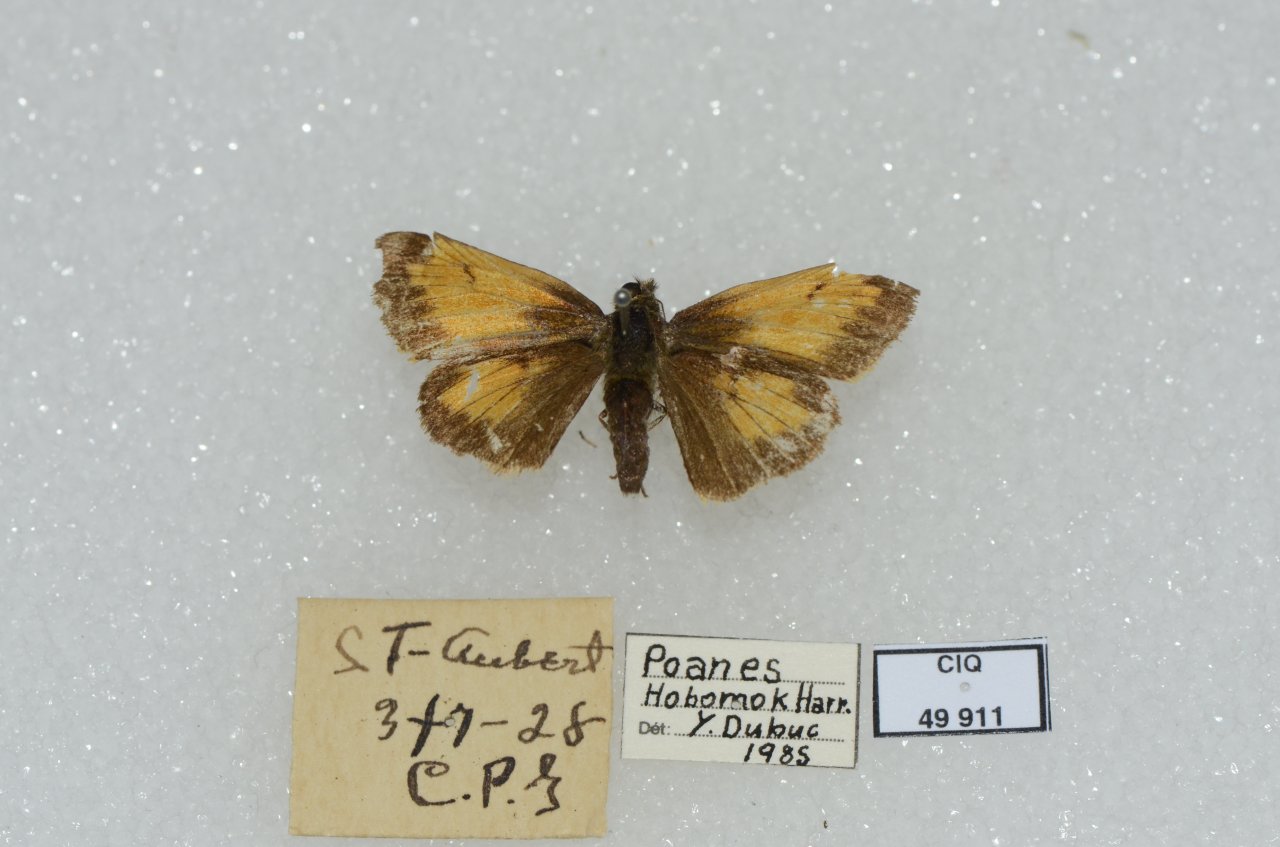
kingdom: Animalia
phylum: Arthropoda
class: Insecta
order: Lepidoptera
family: Hesperiidae
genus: Lon
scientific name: Lon hobomok
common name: Hobomok Skipper
